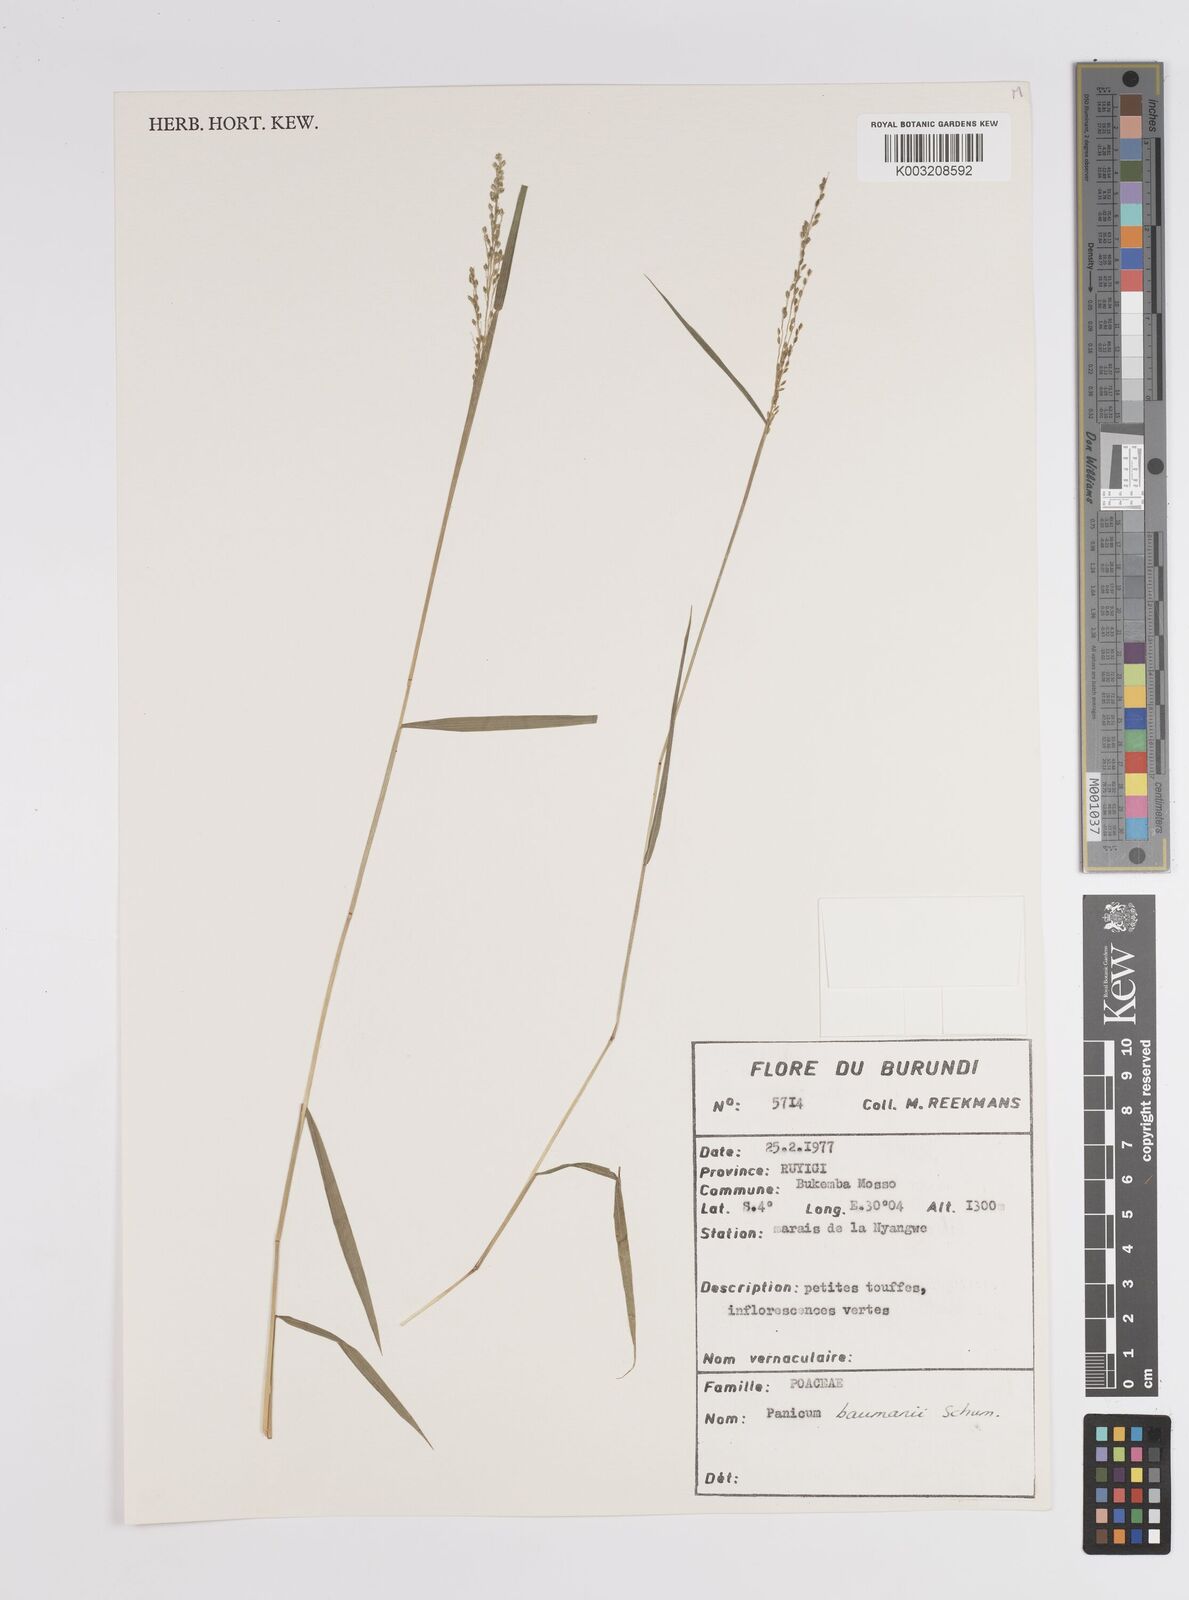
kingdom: Plantae
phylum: Tracheophyta
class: Liliopsida
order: Poales
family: Poaceae
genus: Trichanthecium
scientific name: Trichanthecium nervatum
